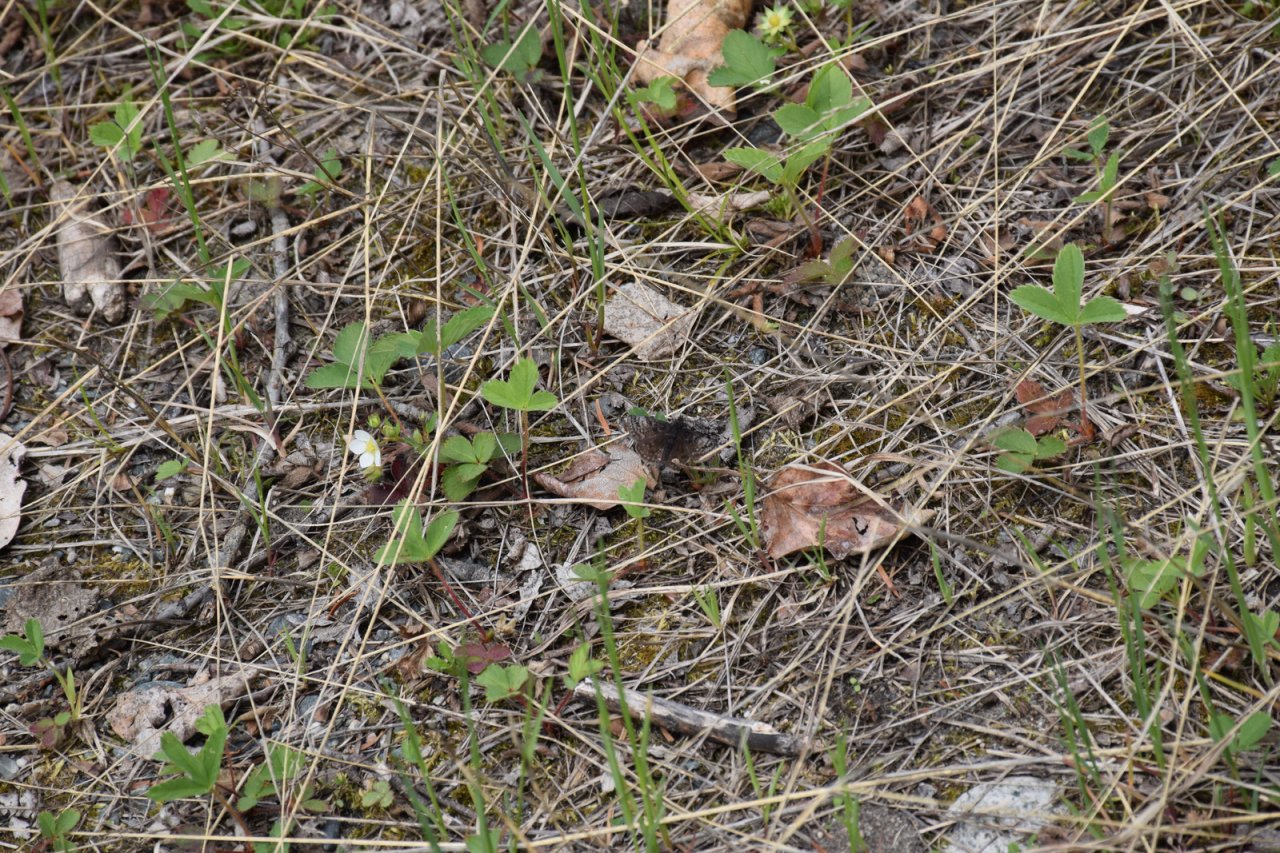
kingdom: Animalia
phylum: Arthropoda
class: Insecta
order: Lepidoptera
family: Hesperiidae
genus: Erynnis
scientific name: Erynnis icelus
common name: Dreamy Duskywing
